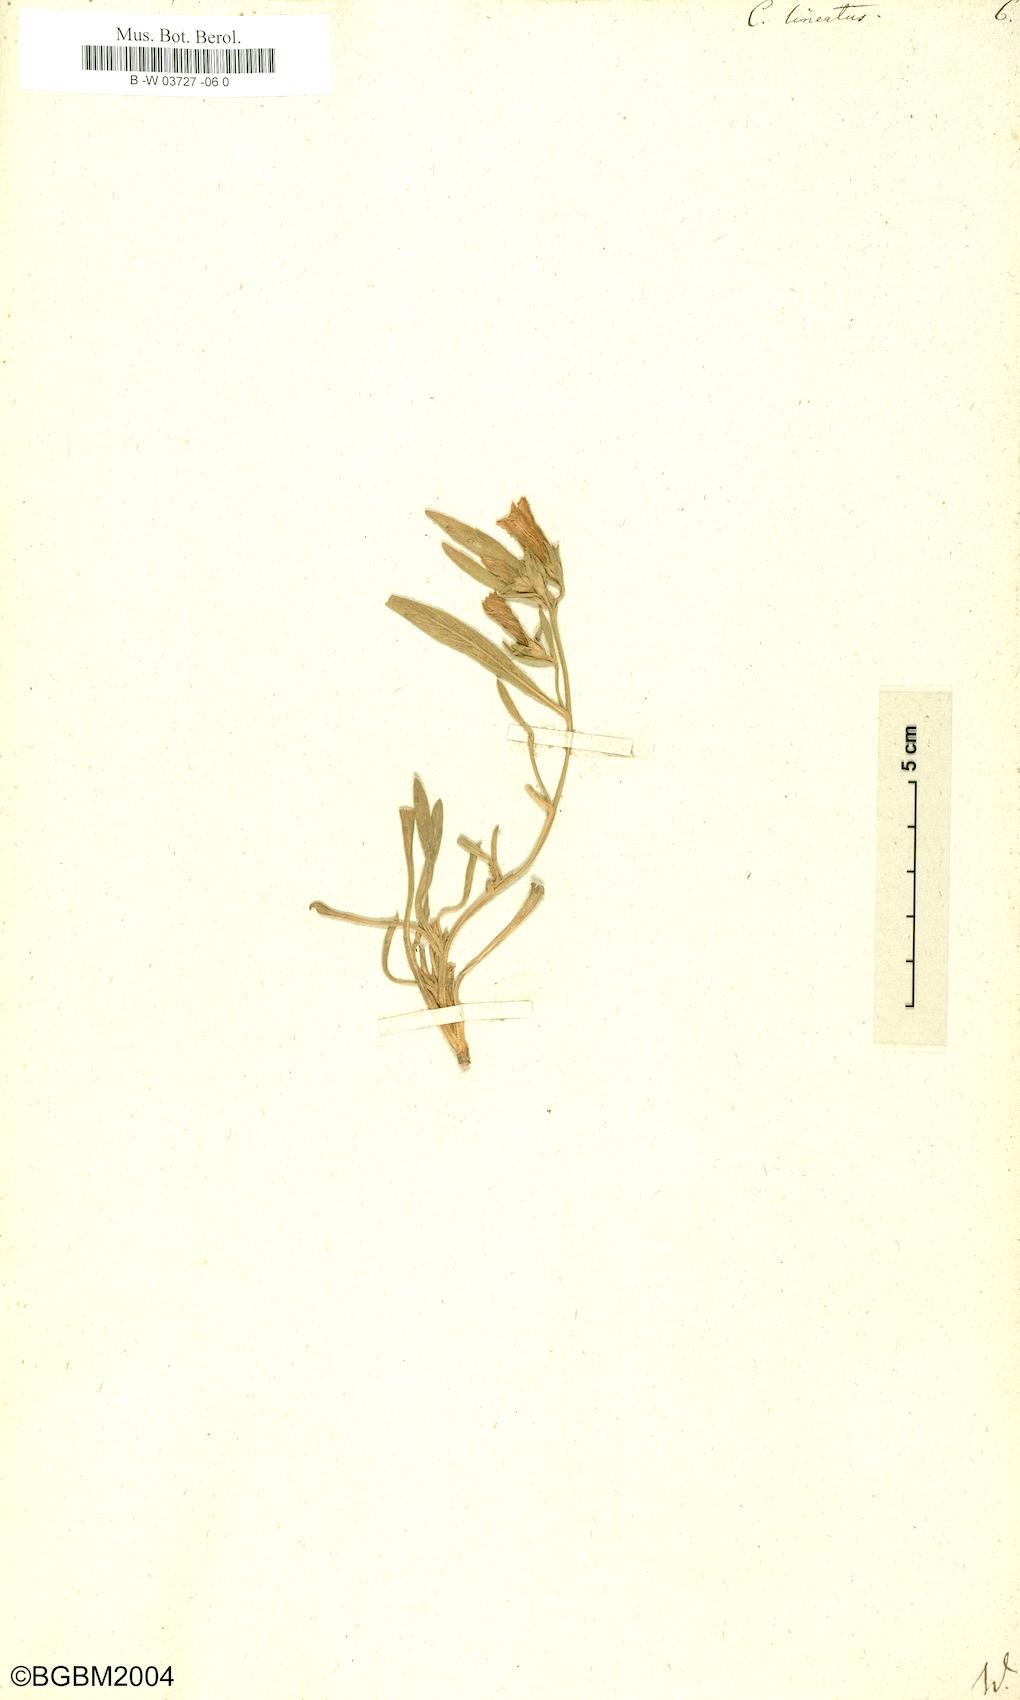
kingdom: Plantae
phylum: Tracheophyta
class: Magnoliopsida
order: Solanales
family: Convolvulaceae
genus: Convolvulus
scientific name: Convolvulus lineatus
